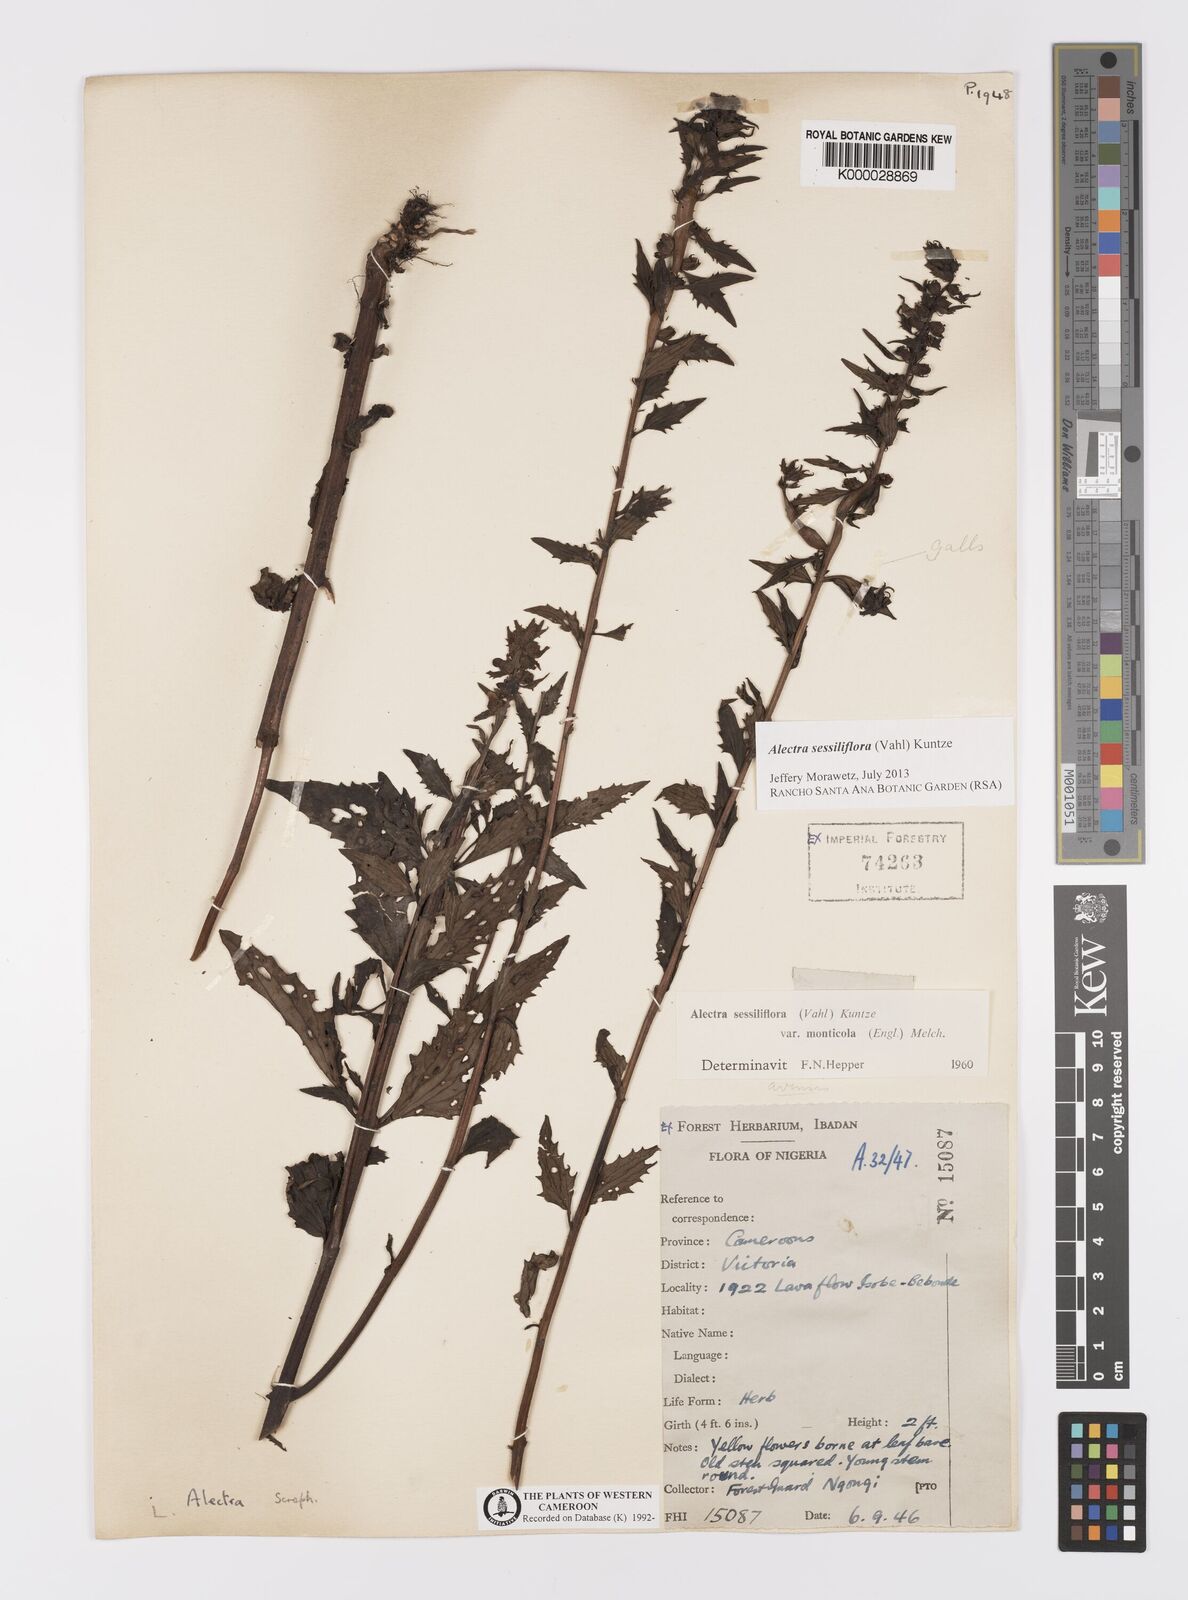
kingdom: Plantae
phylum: Tracheophyta
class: Magnoliopsida
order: Lamiales
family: Orobanchaceae
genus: Alectra
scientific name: Alectra sessiliflora
